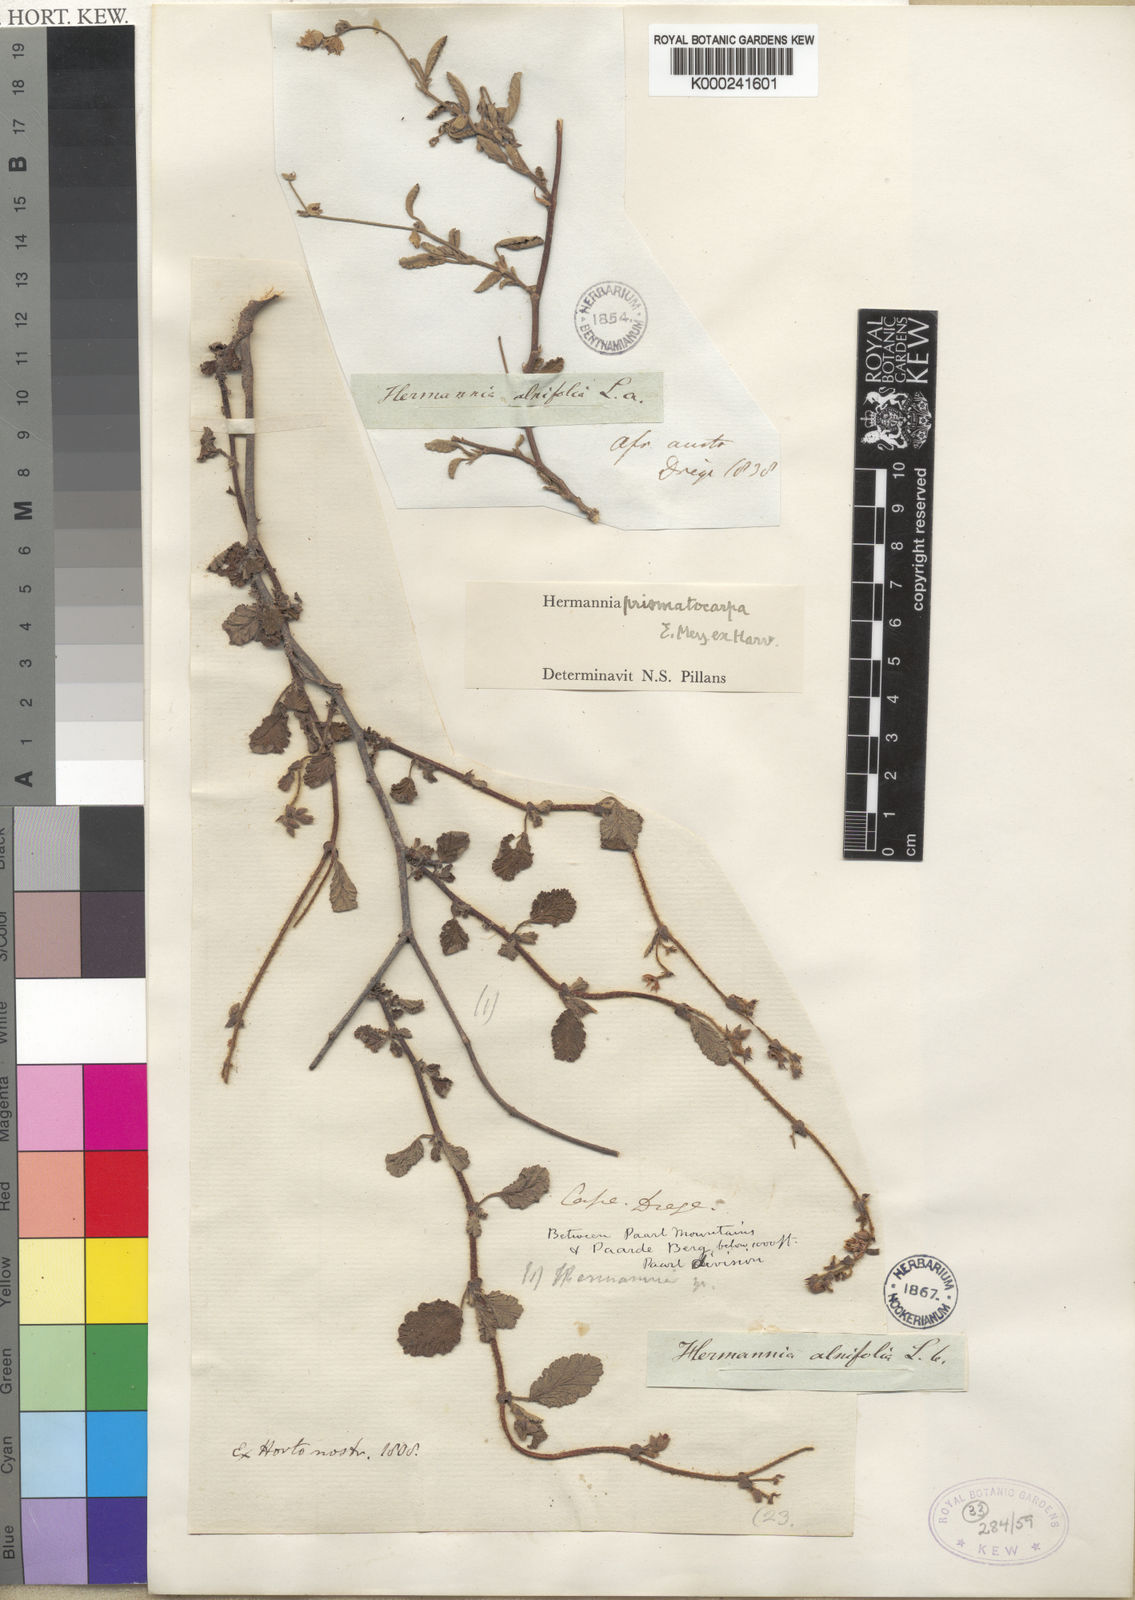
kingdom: Plantae
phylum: Tracheophyta
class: Magnoliopsida
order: Malvales
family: Malvaceae
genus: Hermannia
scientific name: Hermannia prismatocarpa
